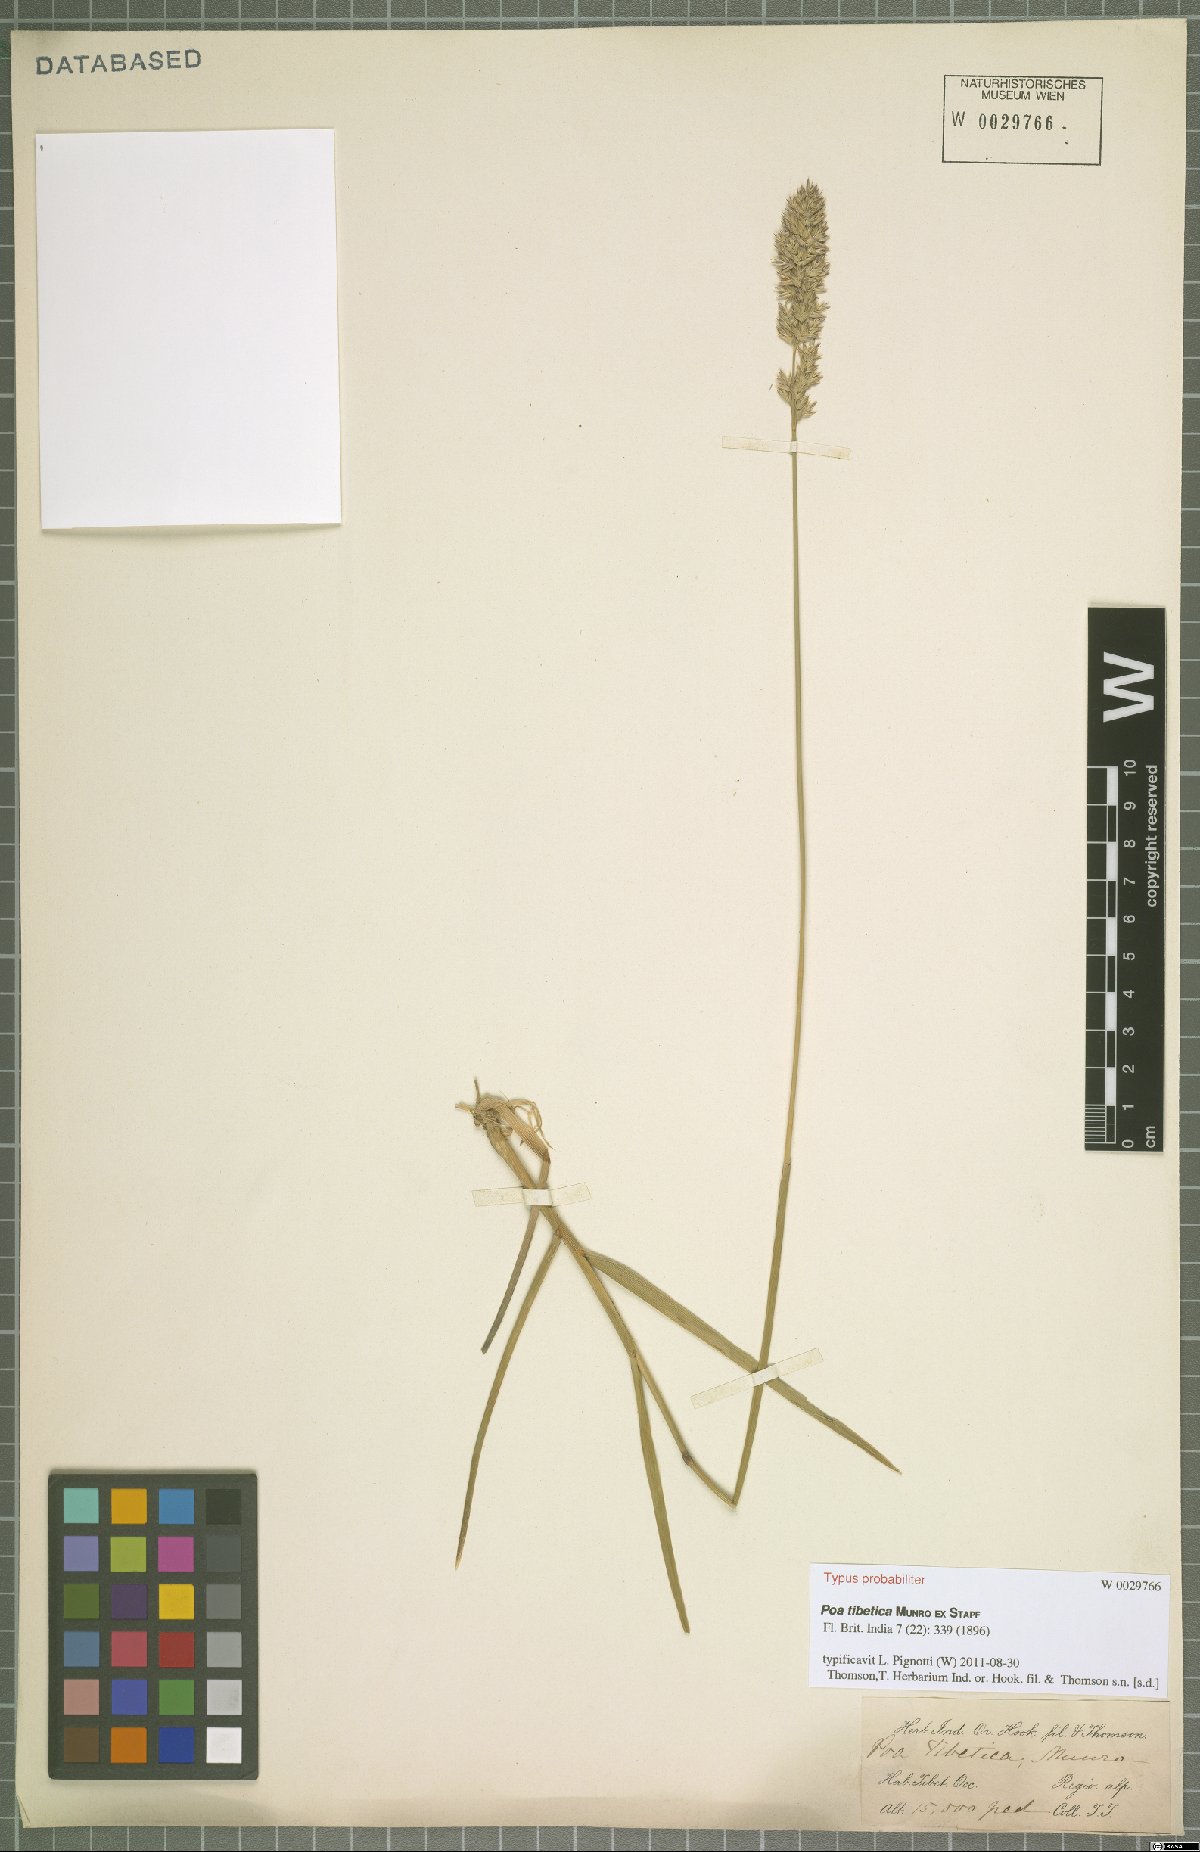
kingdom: Plantae
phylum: Tracheophyta
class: Liliopsida
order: Poales
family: Poaceae
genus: Arctopoa
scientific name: Arctopoa tibetica
